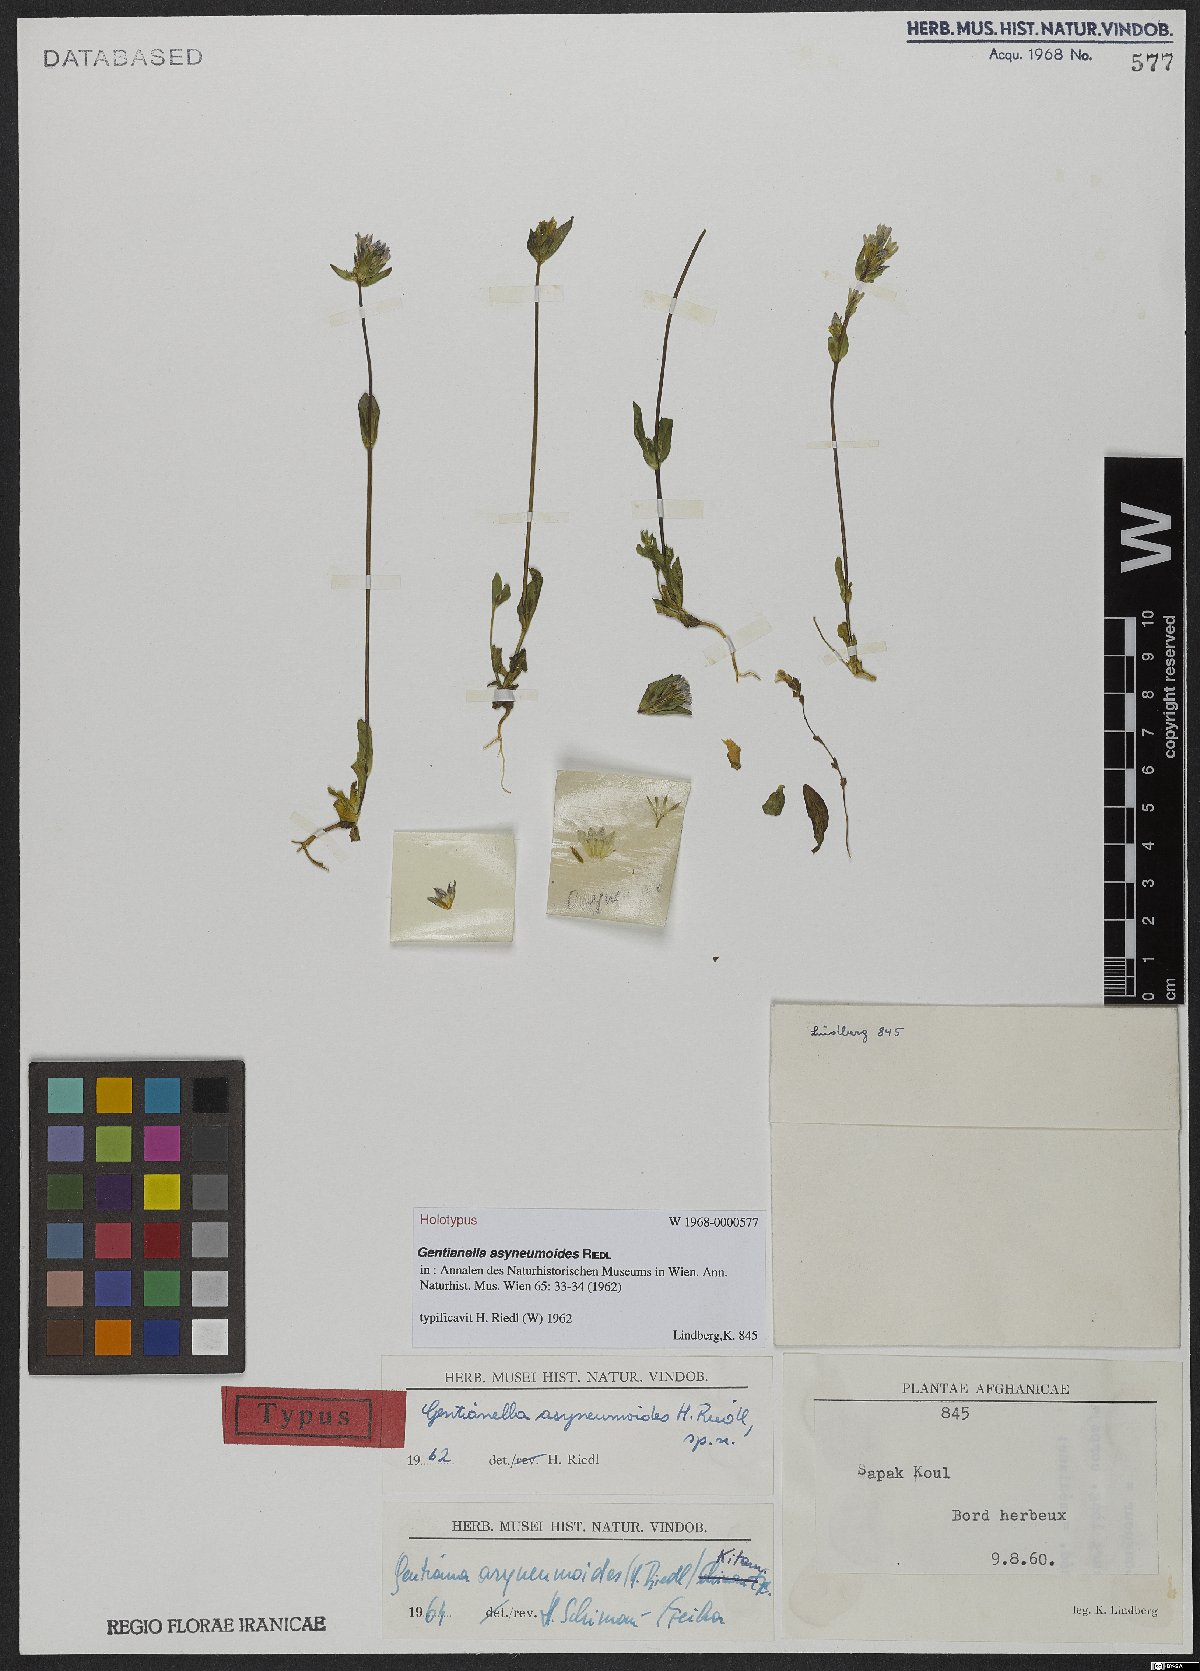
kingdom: Plantae
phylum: Tracheophyta
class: Magnoliopsida
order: Gentianales
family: Gentianaceae
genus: Gentianella
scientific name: Gentianella asyneumoides
